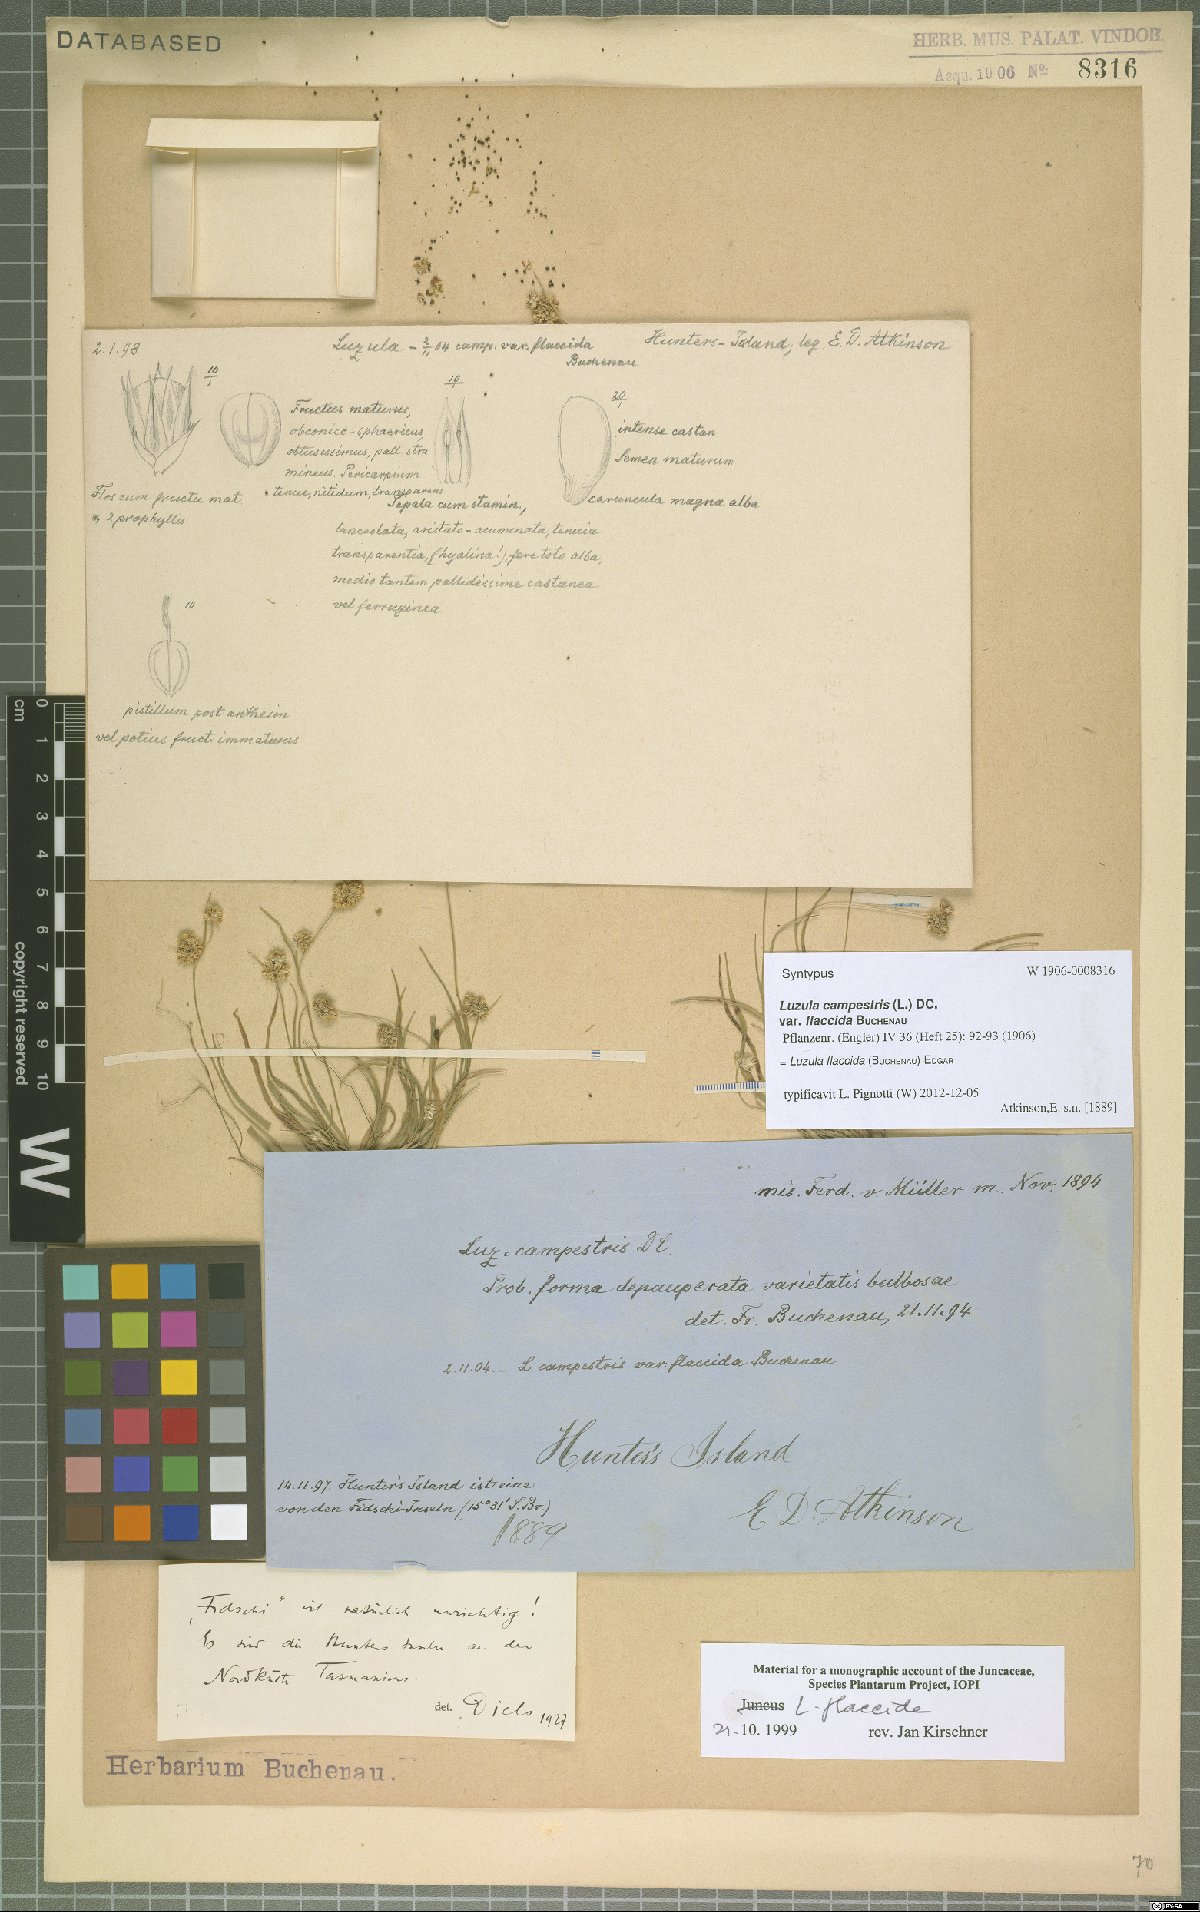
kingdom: Plantae
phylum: Tracheophyta
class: Liliopsida
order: Poales
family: Juncaceae
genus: Luzula
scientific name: Luzula flaccida
